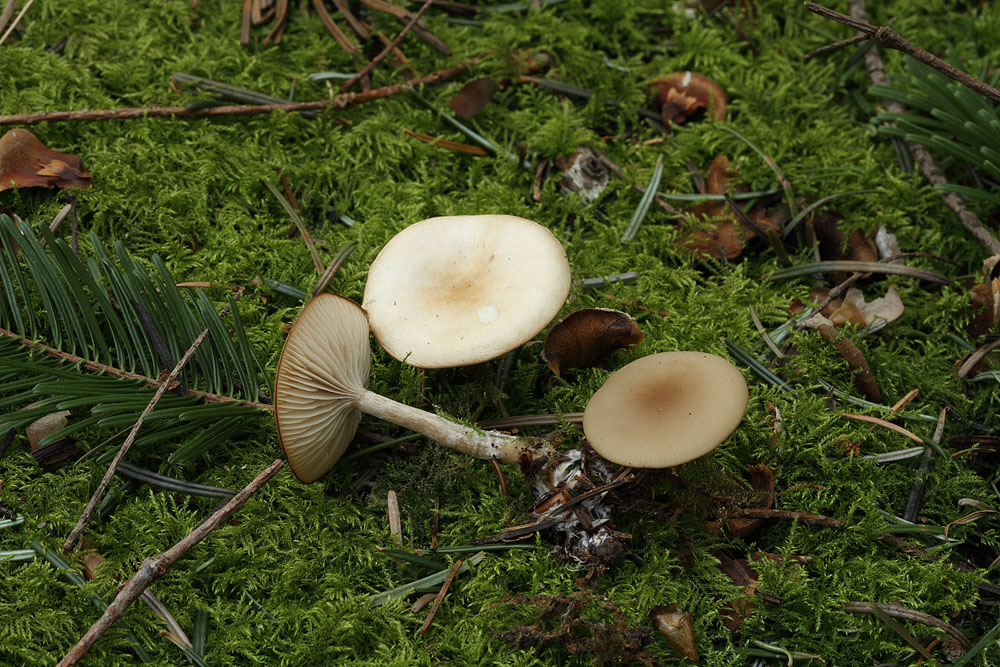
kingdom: Fungi
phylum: Basidiomycota
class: Agaricomycetes
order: Agaricales
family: Tricholomataceae
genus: Clitocybe
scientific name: Clitocybe fragrans
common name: vellugtende tragthat
